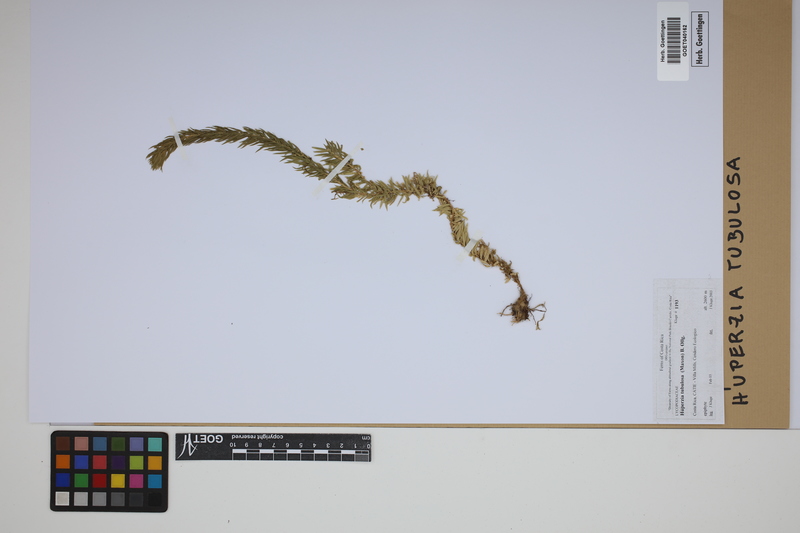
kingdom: Plantae
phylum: Tracheophyta
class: Lycopodiopsida
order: Lycopodiales
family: Lycopodiaceae
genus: Phlegmariurus
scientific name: Phlegmariurus tubulosus
